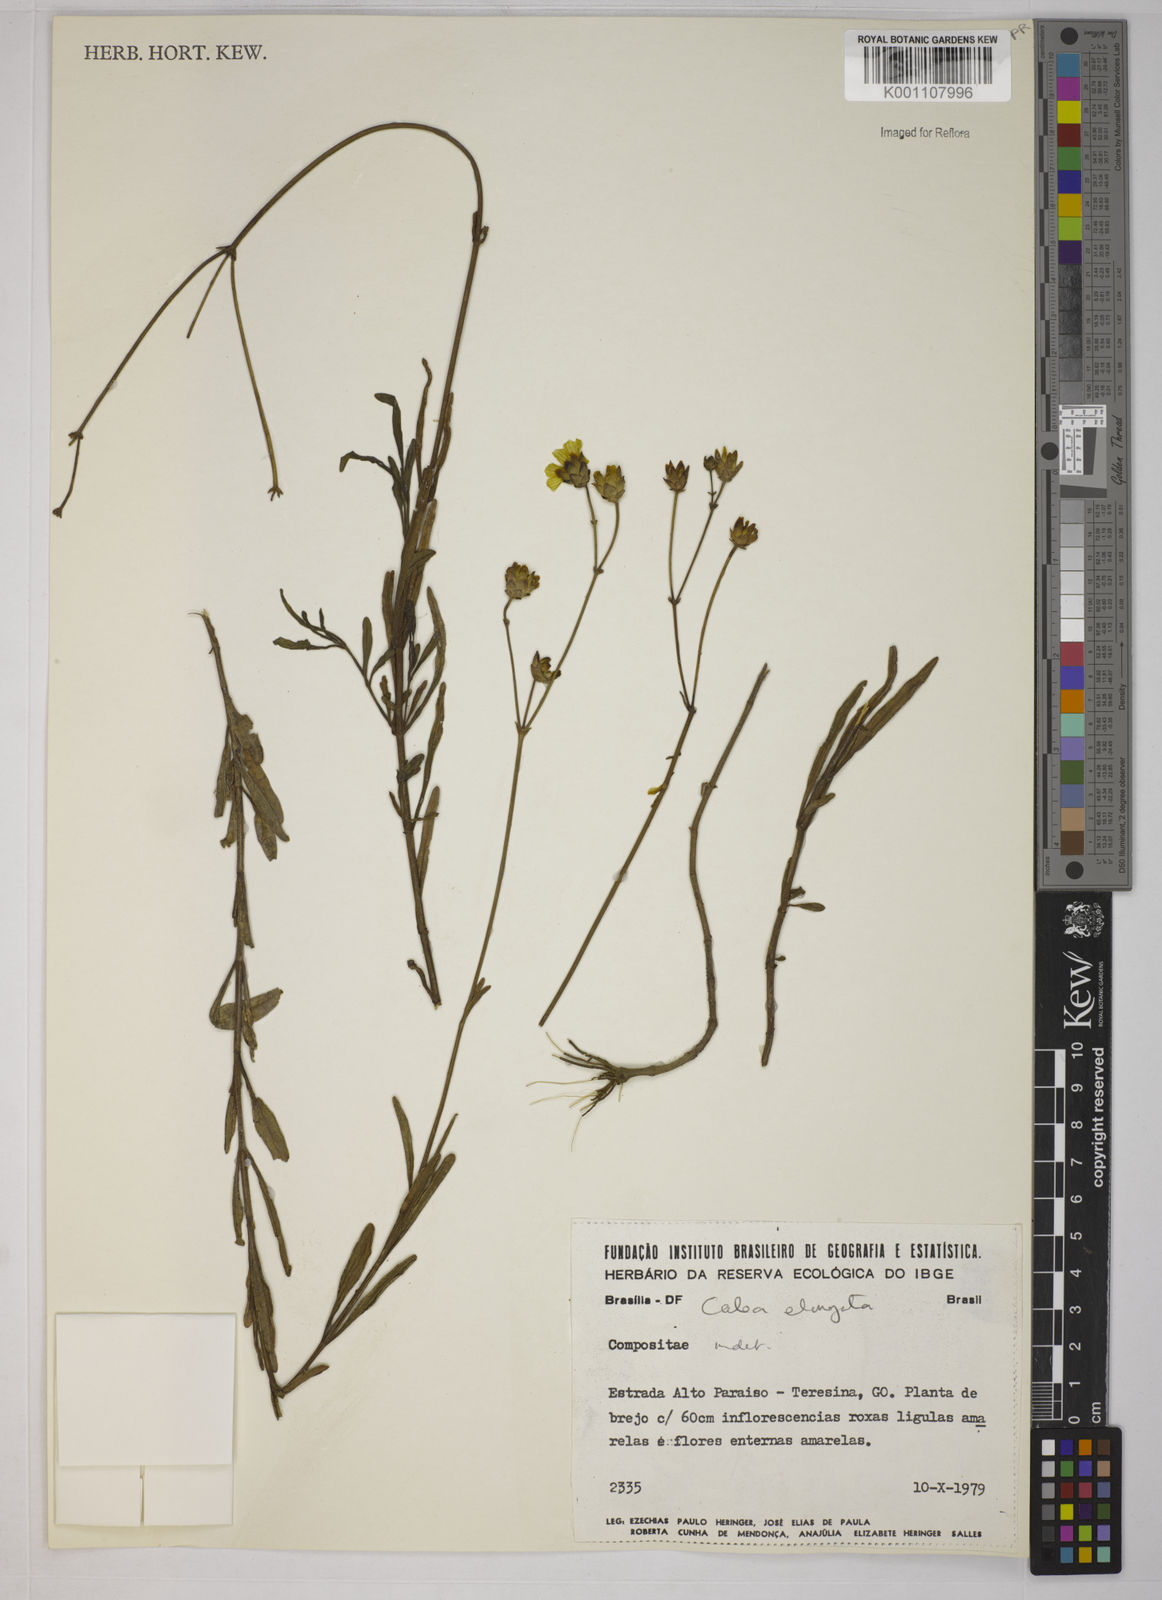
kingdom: Plantae
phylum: Tracheophyta
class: Magnoliopsida
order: Asterales
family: Asteraceae
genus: Calea
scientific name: Calea elongata
